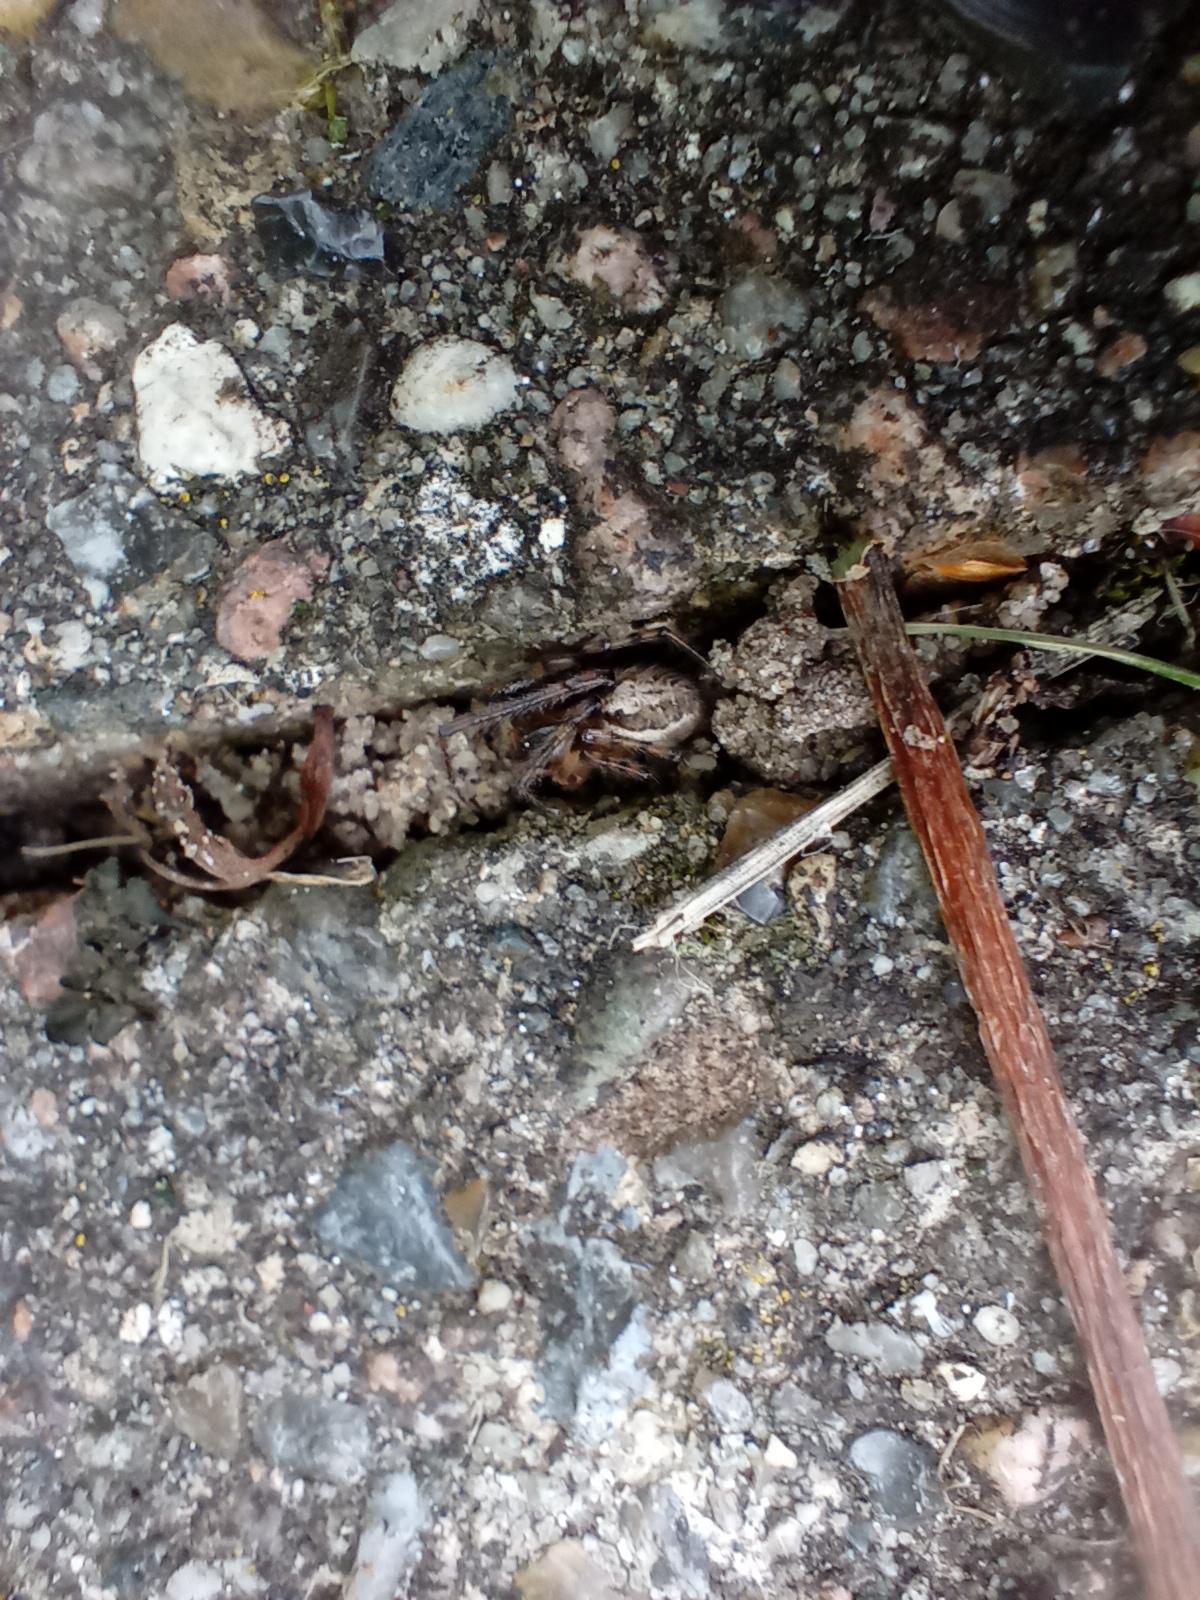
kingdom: Animalia
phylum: Arthropoda
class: Arachnida
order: Araneae
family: Araneidae
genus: Zygiella
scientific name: Zygiella x-notata
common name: Grå sektoredderkop
